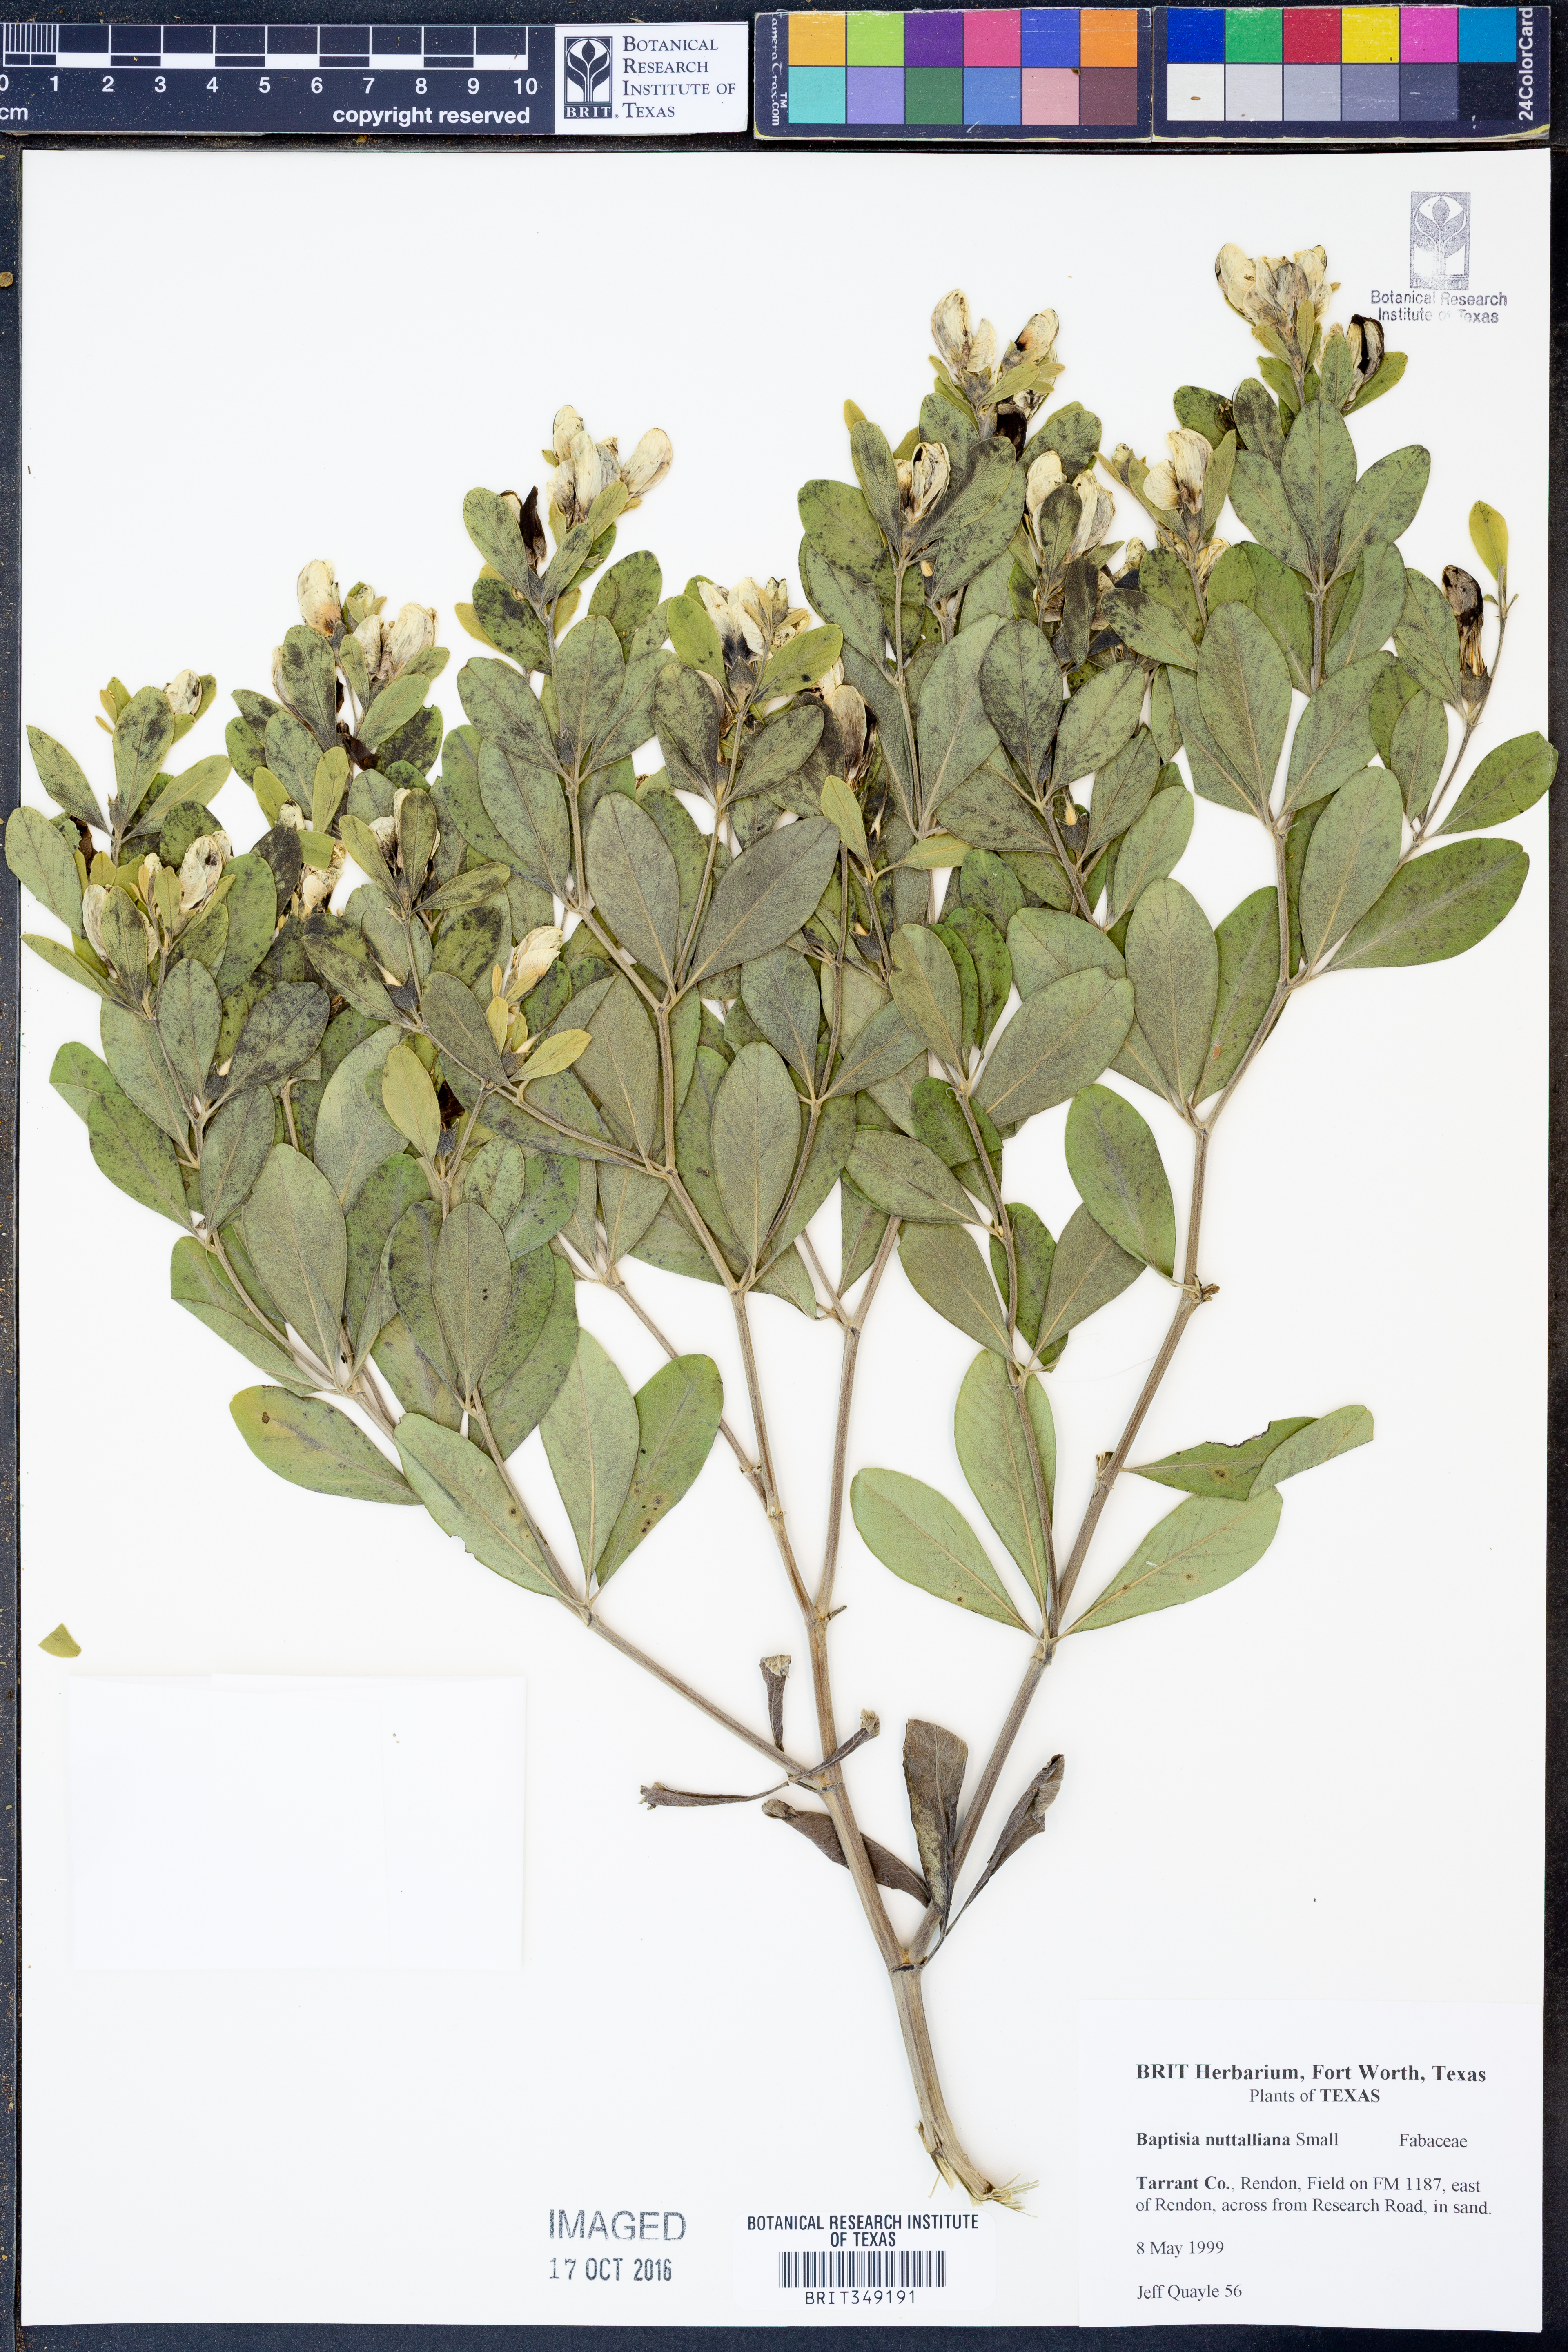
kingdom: Plantae
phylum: Tracheophyta
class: Magnoliopsida
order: Fabales
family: Fabaceae
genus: Baptisia
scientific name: Baptisia nuttalliana
